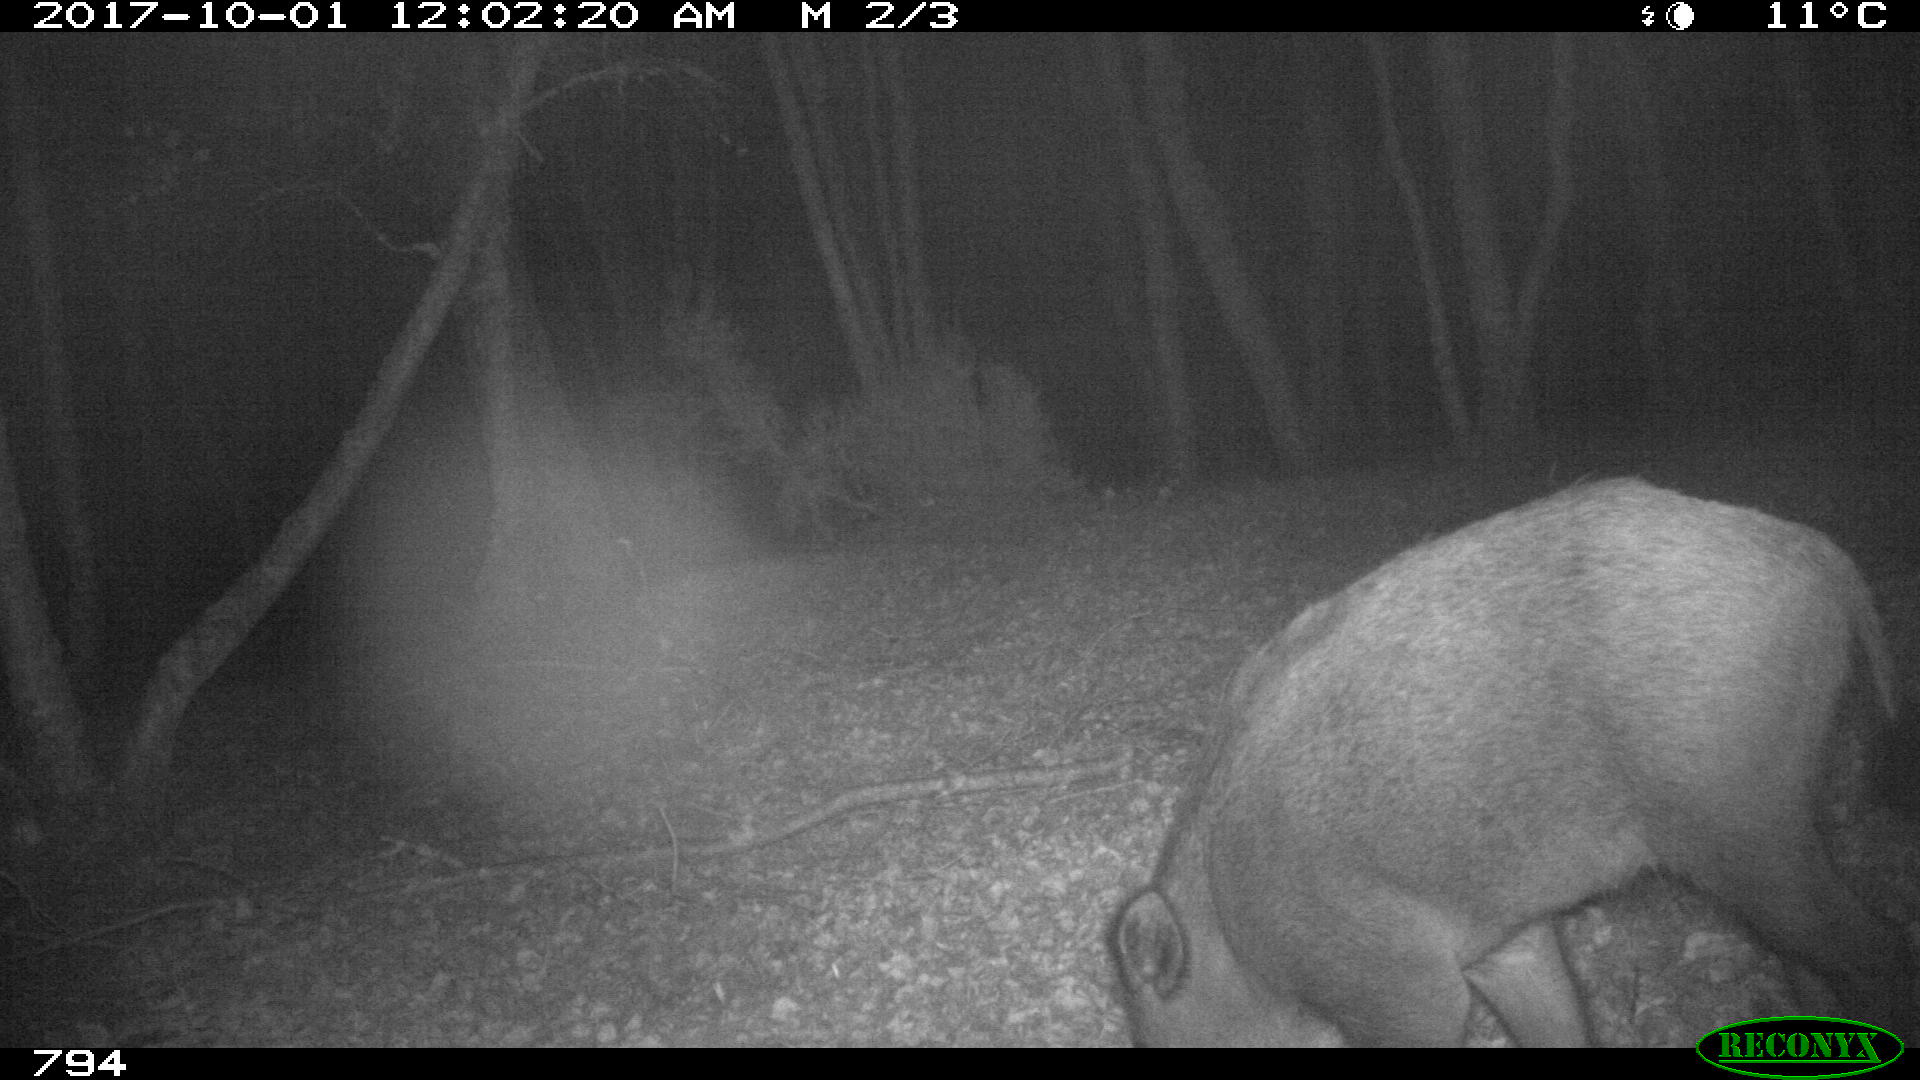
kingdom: Animalia
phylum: Chordata
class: Mammalia
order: Artiodactyla
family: Suidae
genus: Sus
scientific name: Sus scrofa
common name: Wild boar
